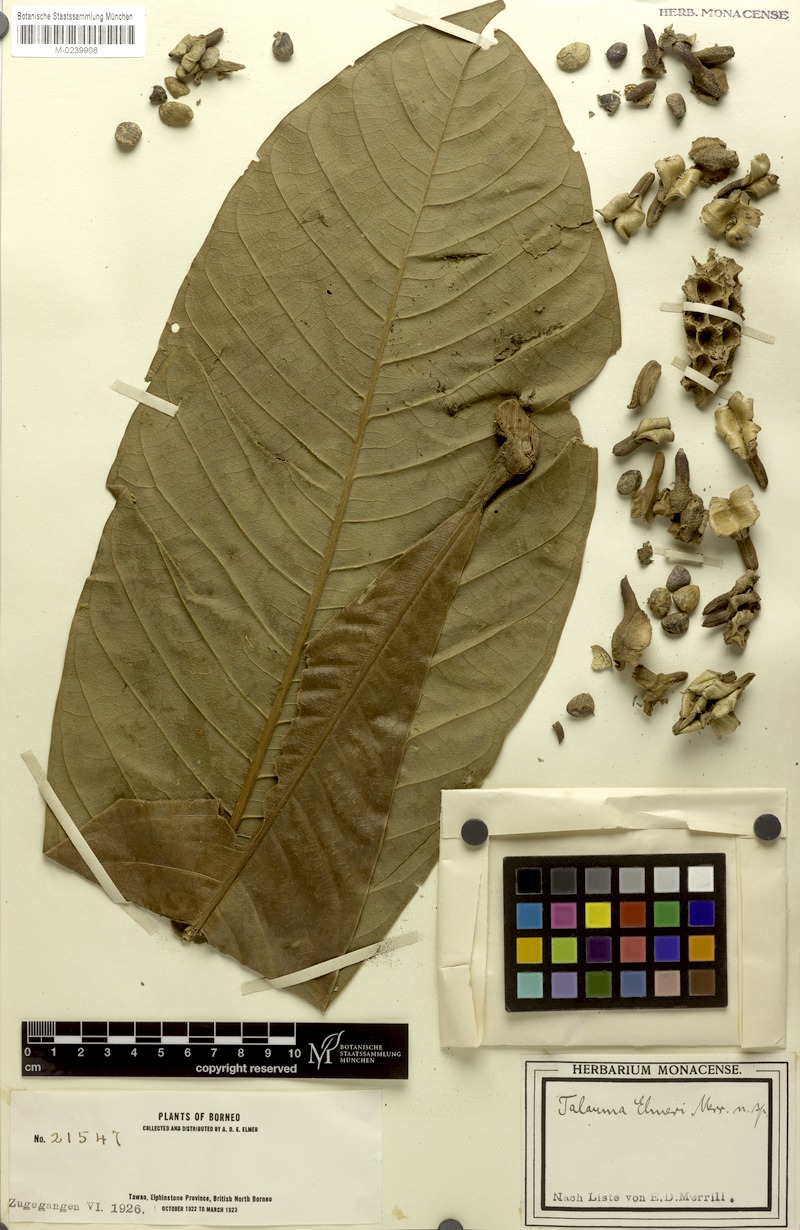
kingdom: Plantae
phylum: Tracheophyta
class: Magnoliopsida
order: Magnoliales
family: Magnoliaceae
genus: Magnolia
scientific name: Magnolia gigantifolia
